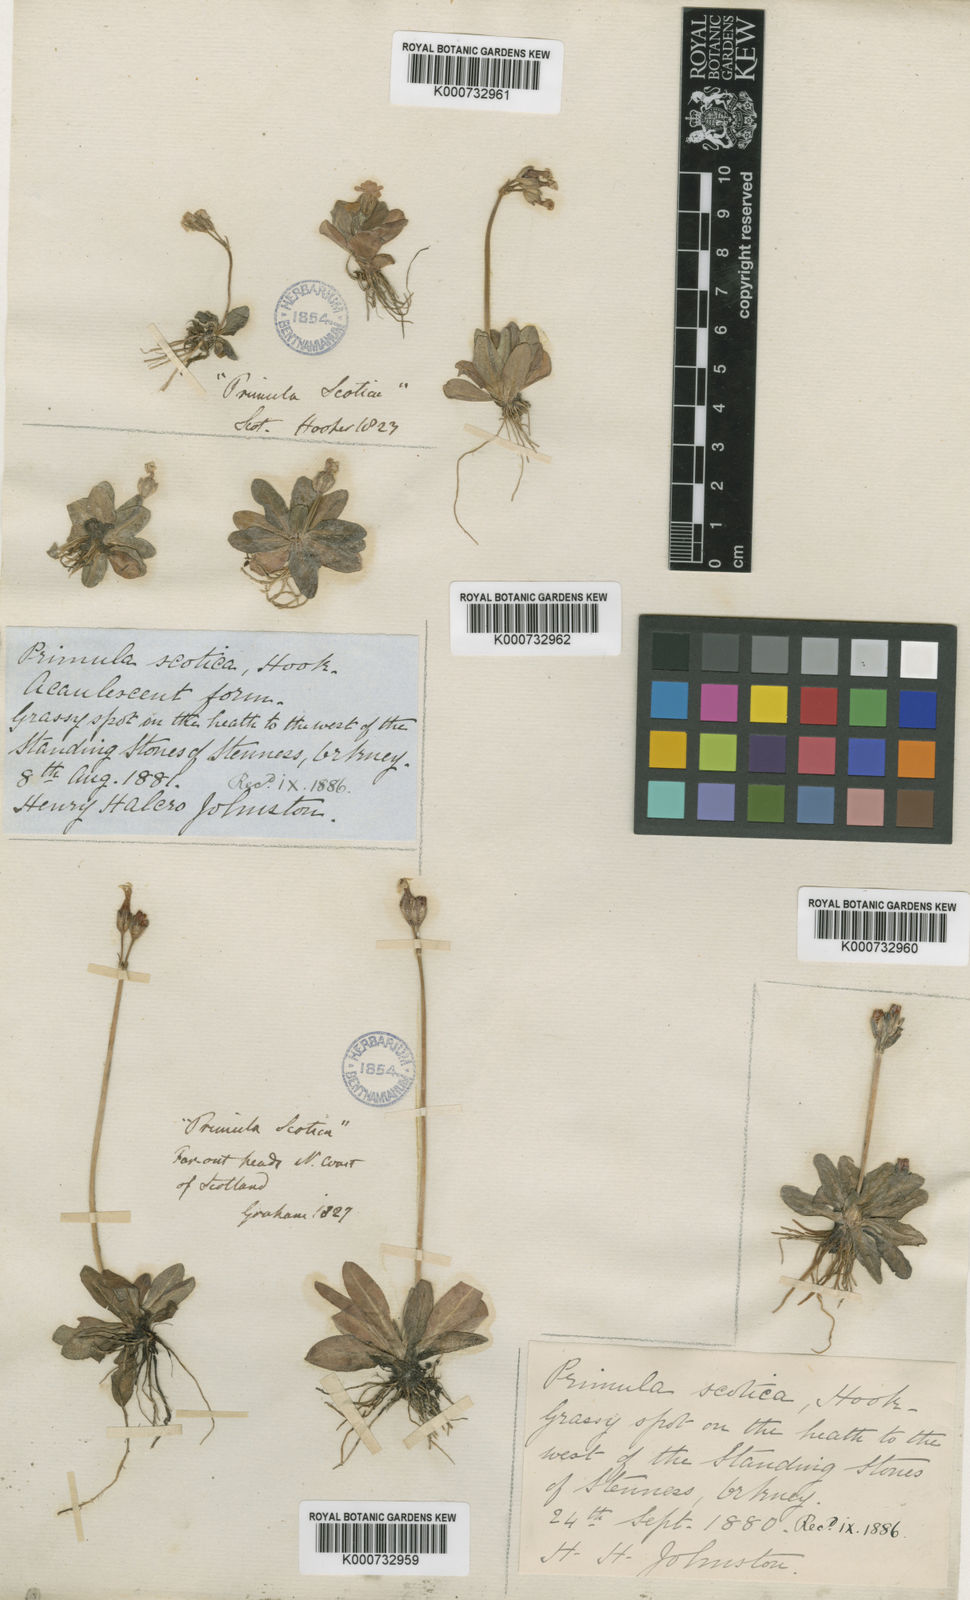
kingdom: Plantae
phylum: Tracheophyta
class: Magnoliopsida
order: Ericales
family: Primulaceae
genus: Primula
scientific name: Primula scotica
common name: Scottish primrose
